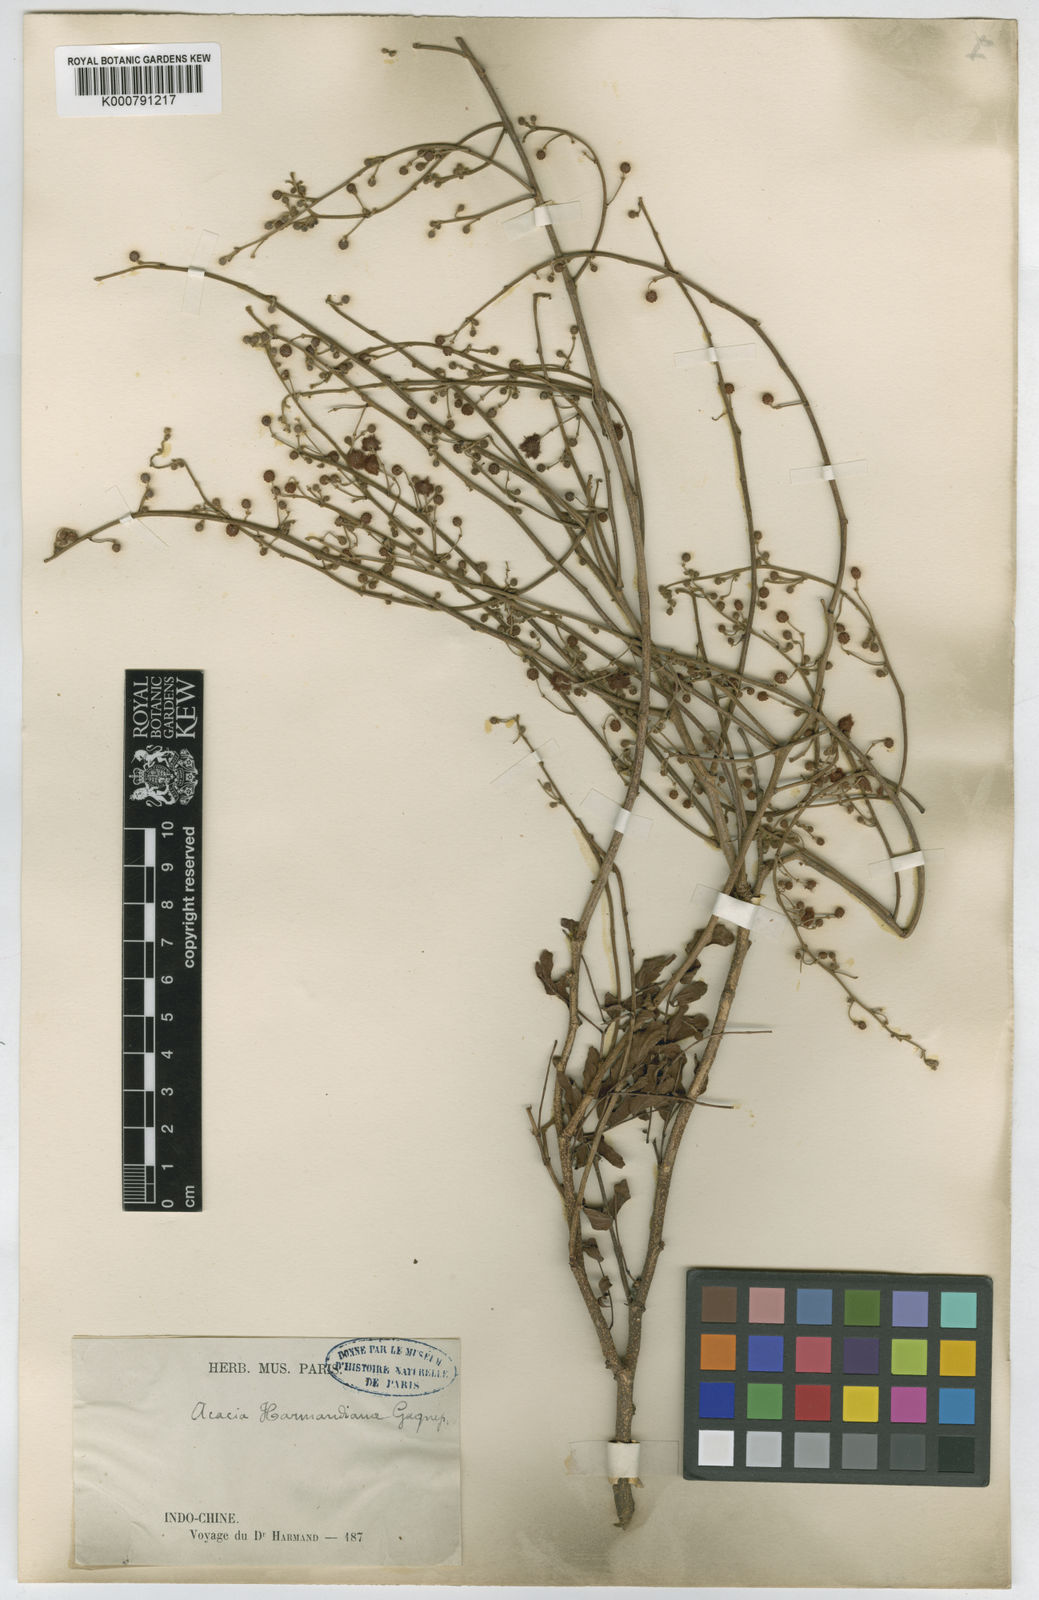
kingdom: Plantae
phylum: Tracheophyta
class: Magnoliopsida
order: Fabales
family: Fabaceae
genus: Vachellia
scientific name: Vachellia harmandiana
